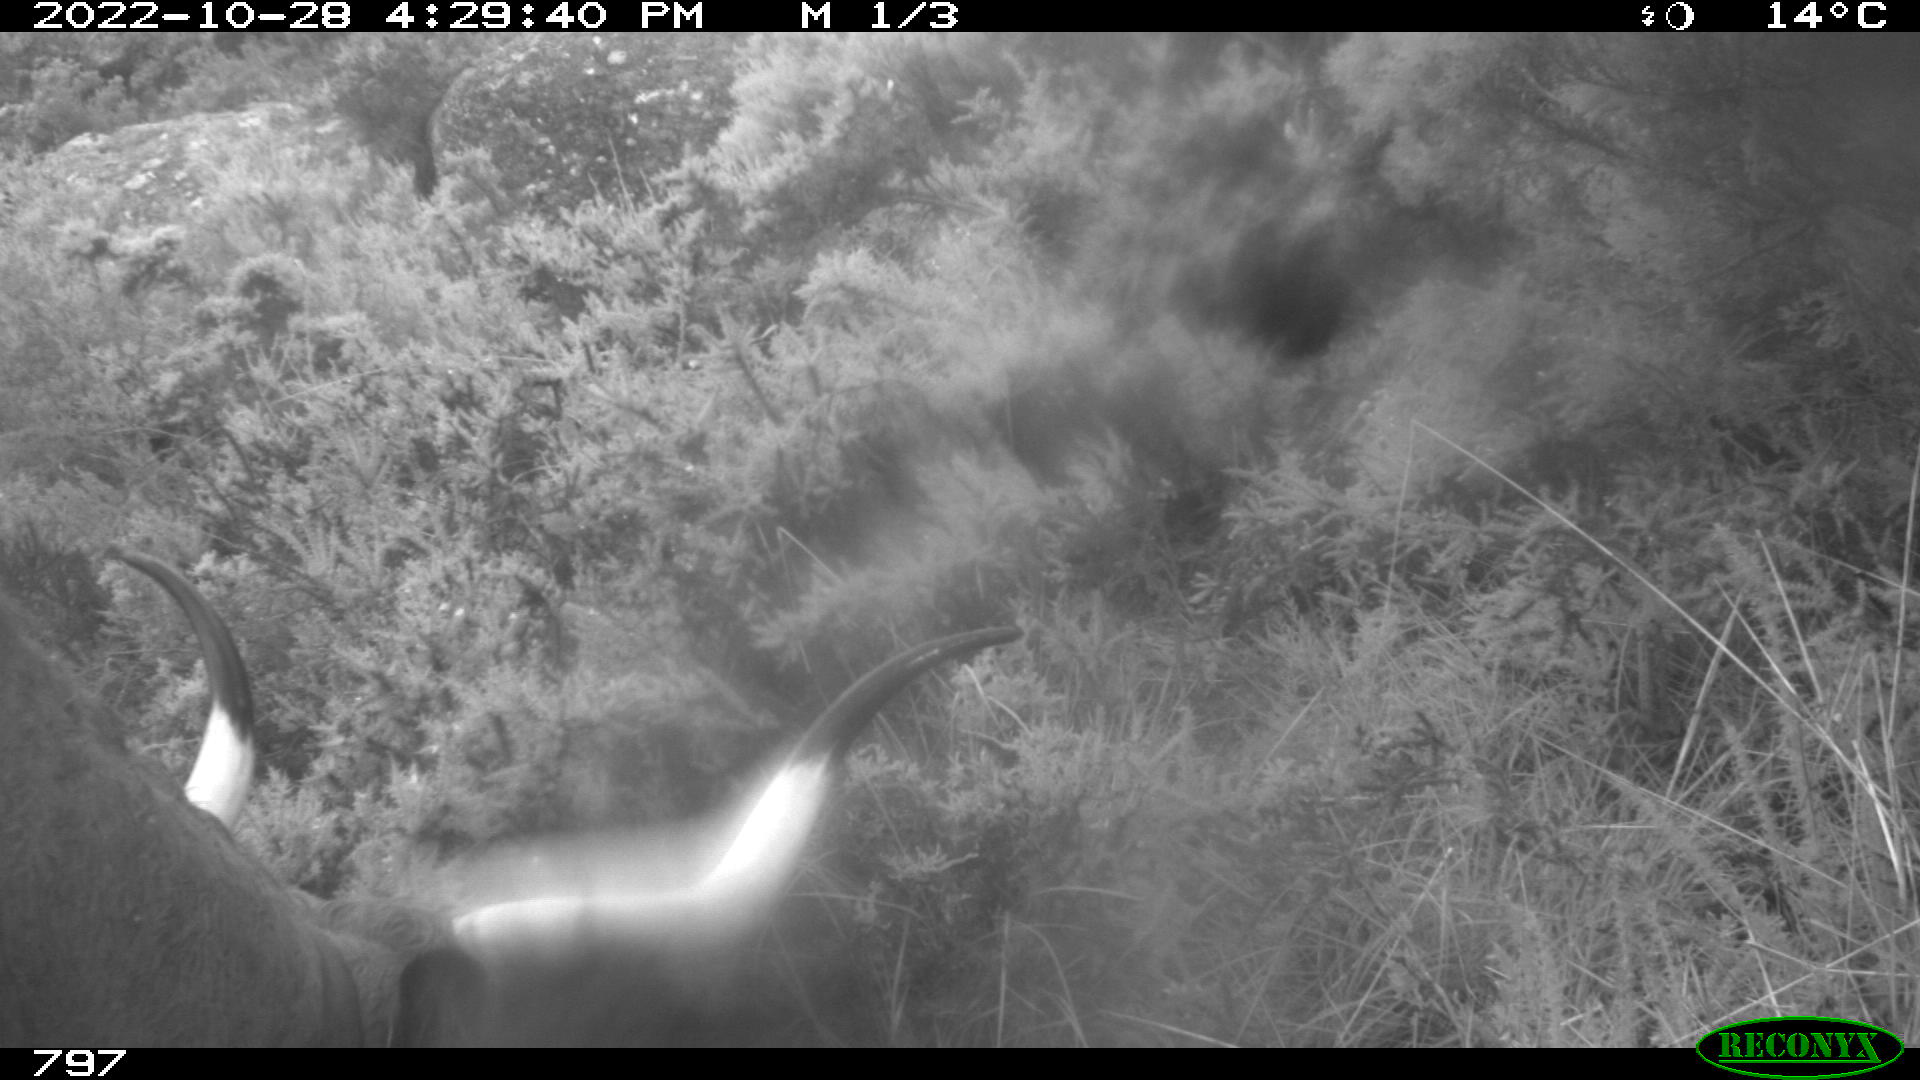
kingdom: Animalia
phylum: Chordata
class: Mammalia
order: Artiodactyla
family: Bovidae
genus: Bos
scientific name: Bos taurus
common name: Domesticated cattle
